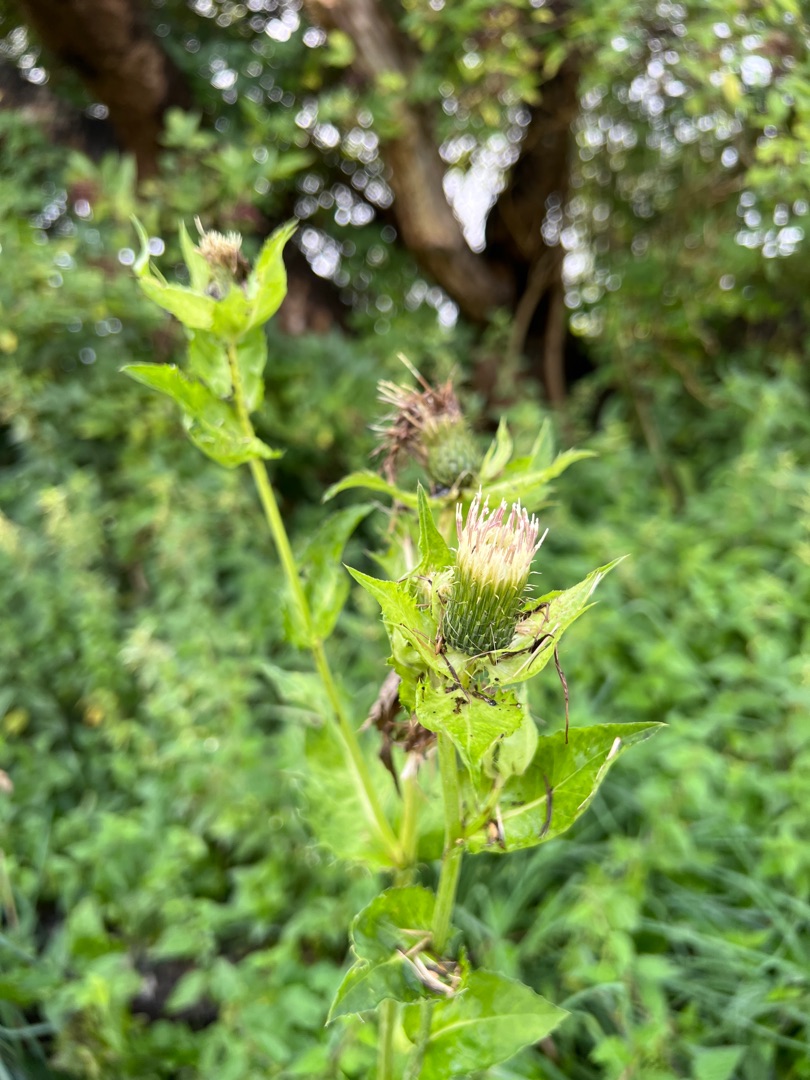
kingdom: Plantae
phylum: Tracheophyta
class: Magnoliopsida
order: Asterales
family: Asteraceae
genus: Cirsium
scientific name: Cirsium oleraceum
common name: Kål-tidsel
